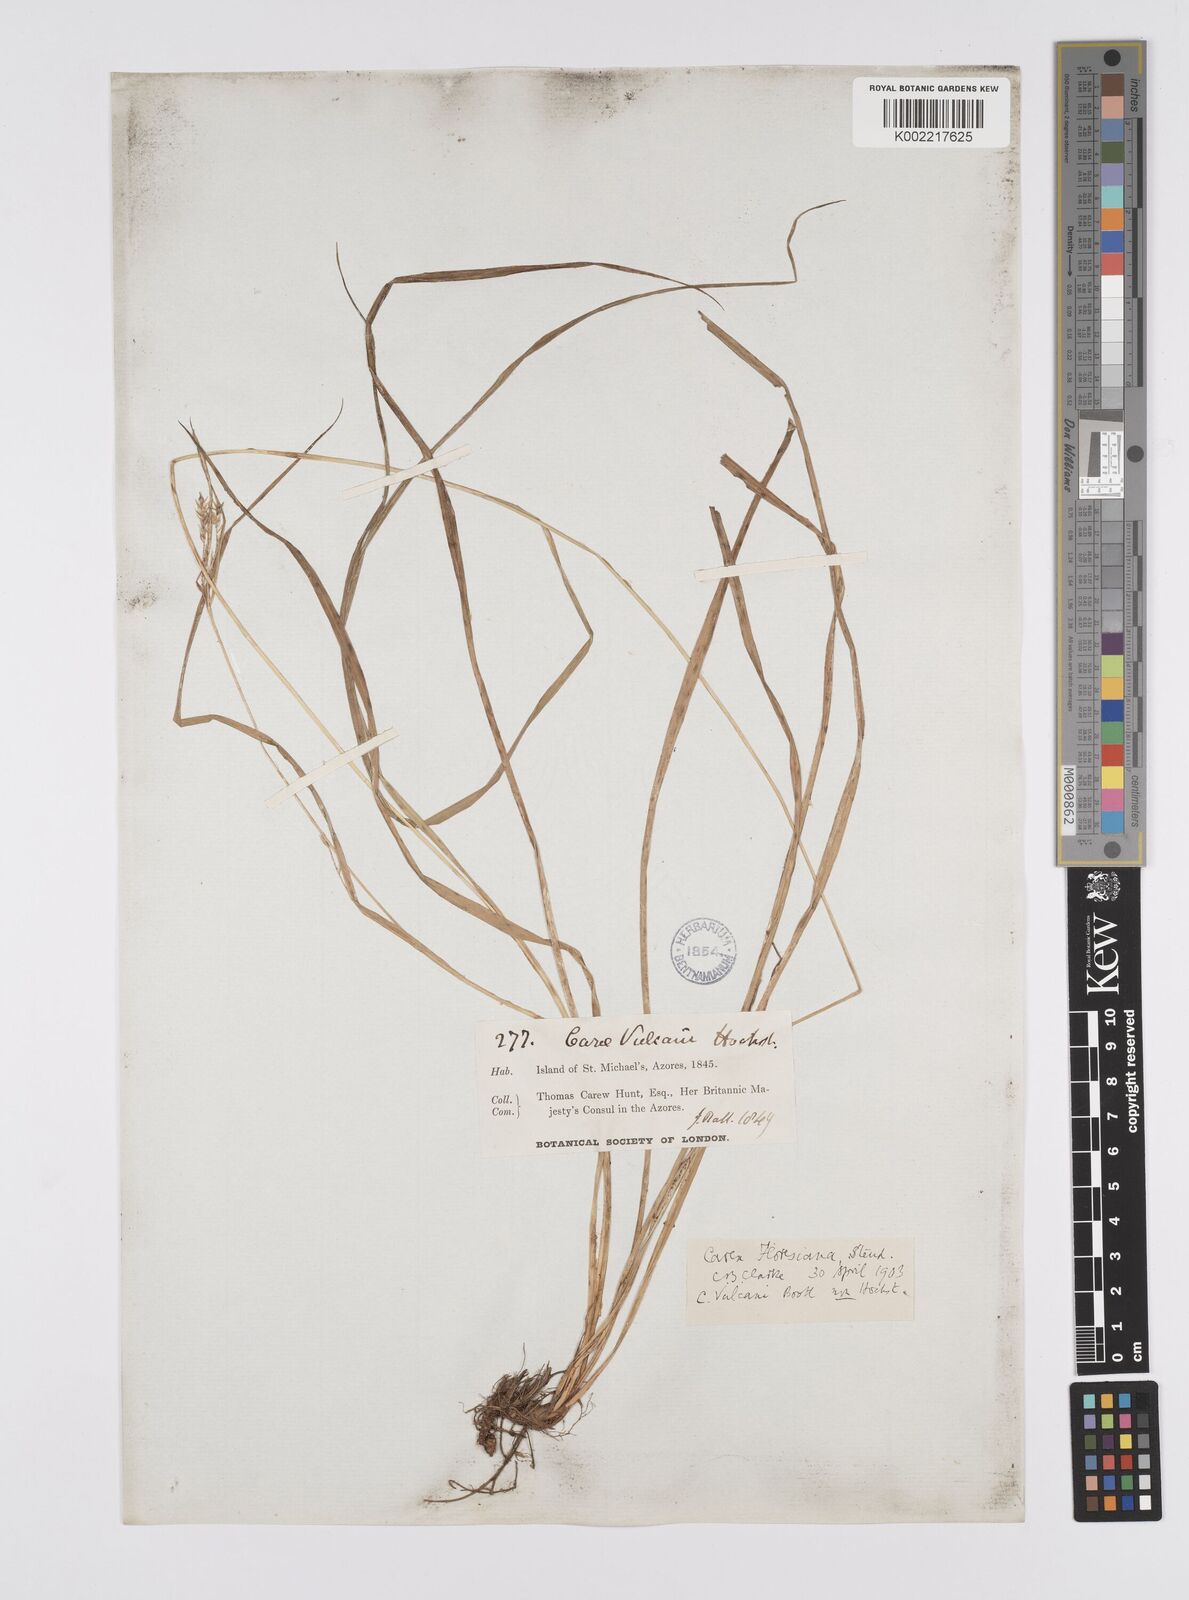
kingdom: Plantae
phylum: Tracheophyta
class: Liliopsida
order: Poales
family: Cyperaceae
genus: Carex
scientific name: Carex vulcani
